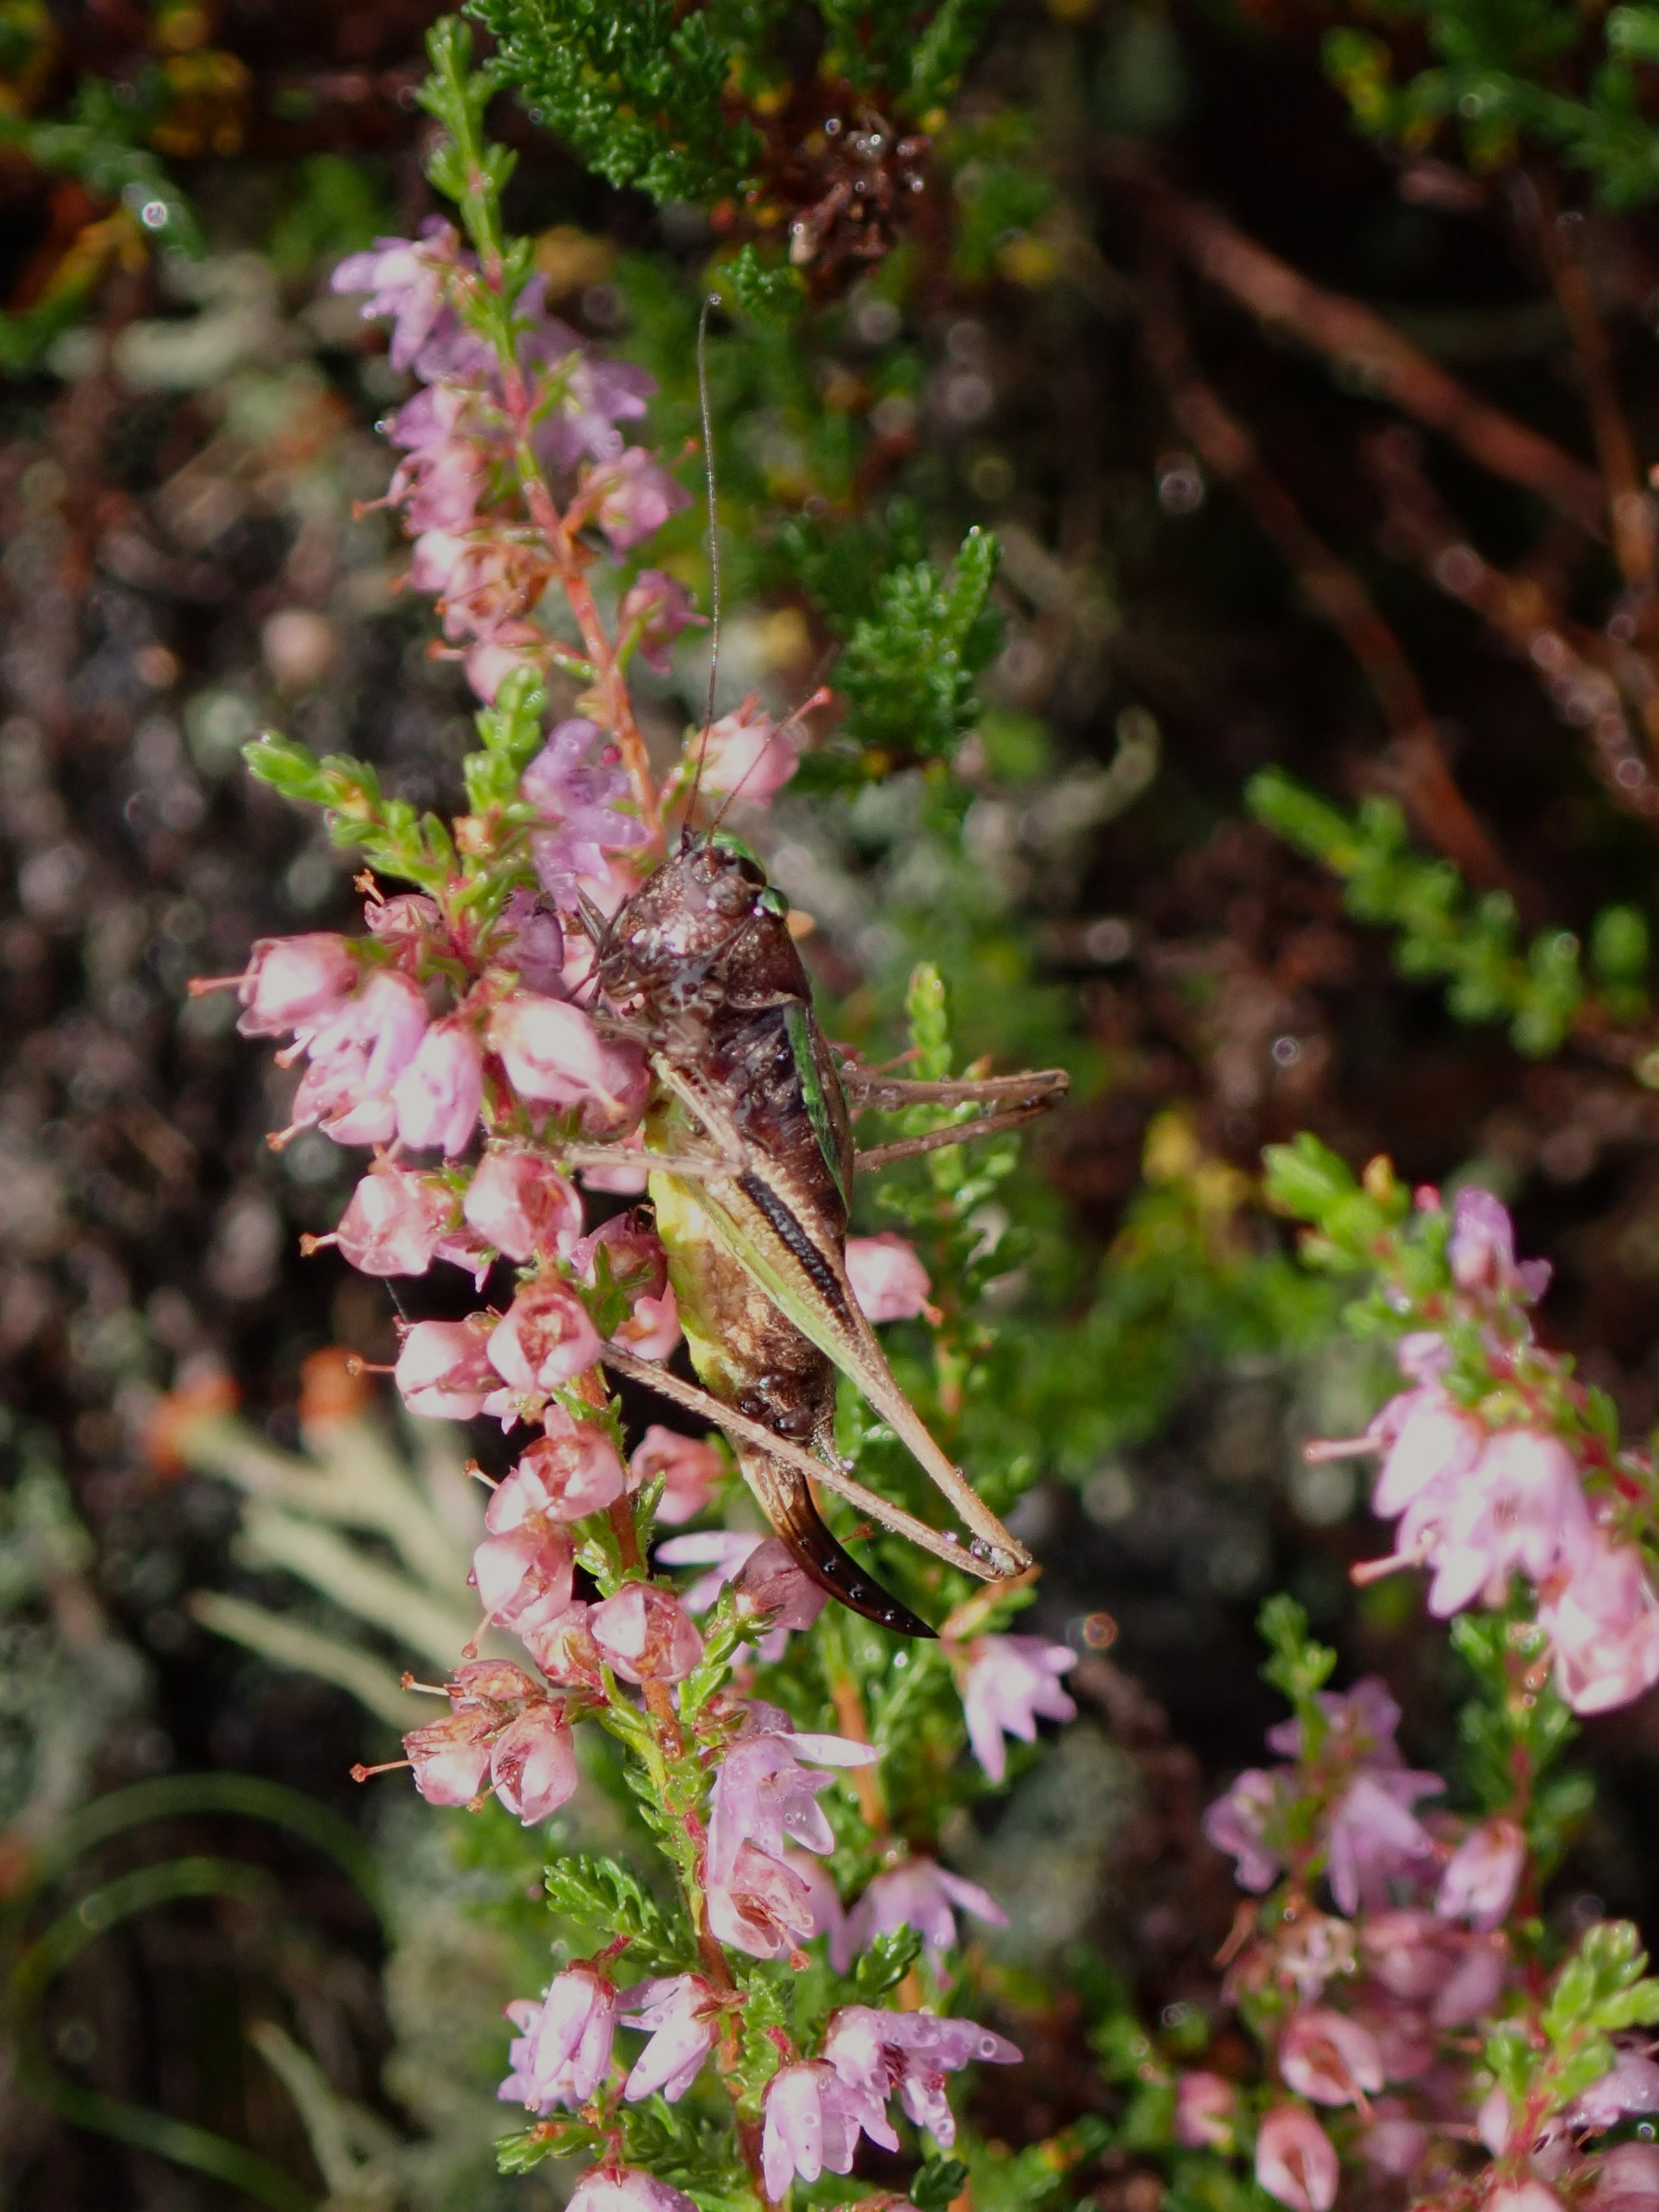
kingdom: Animalia
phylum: Arthropoda
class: Insecta
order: Orthoptera
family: Tettigoniidae
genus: Metrioptera
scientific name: Metrioptera brachyptera
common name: Hedegræshoppe
